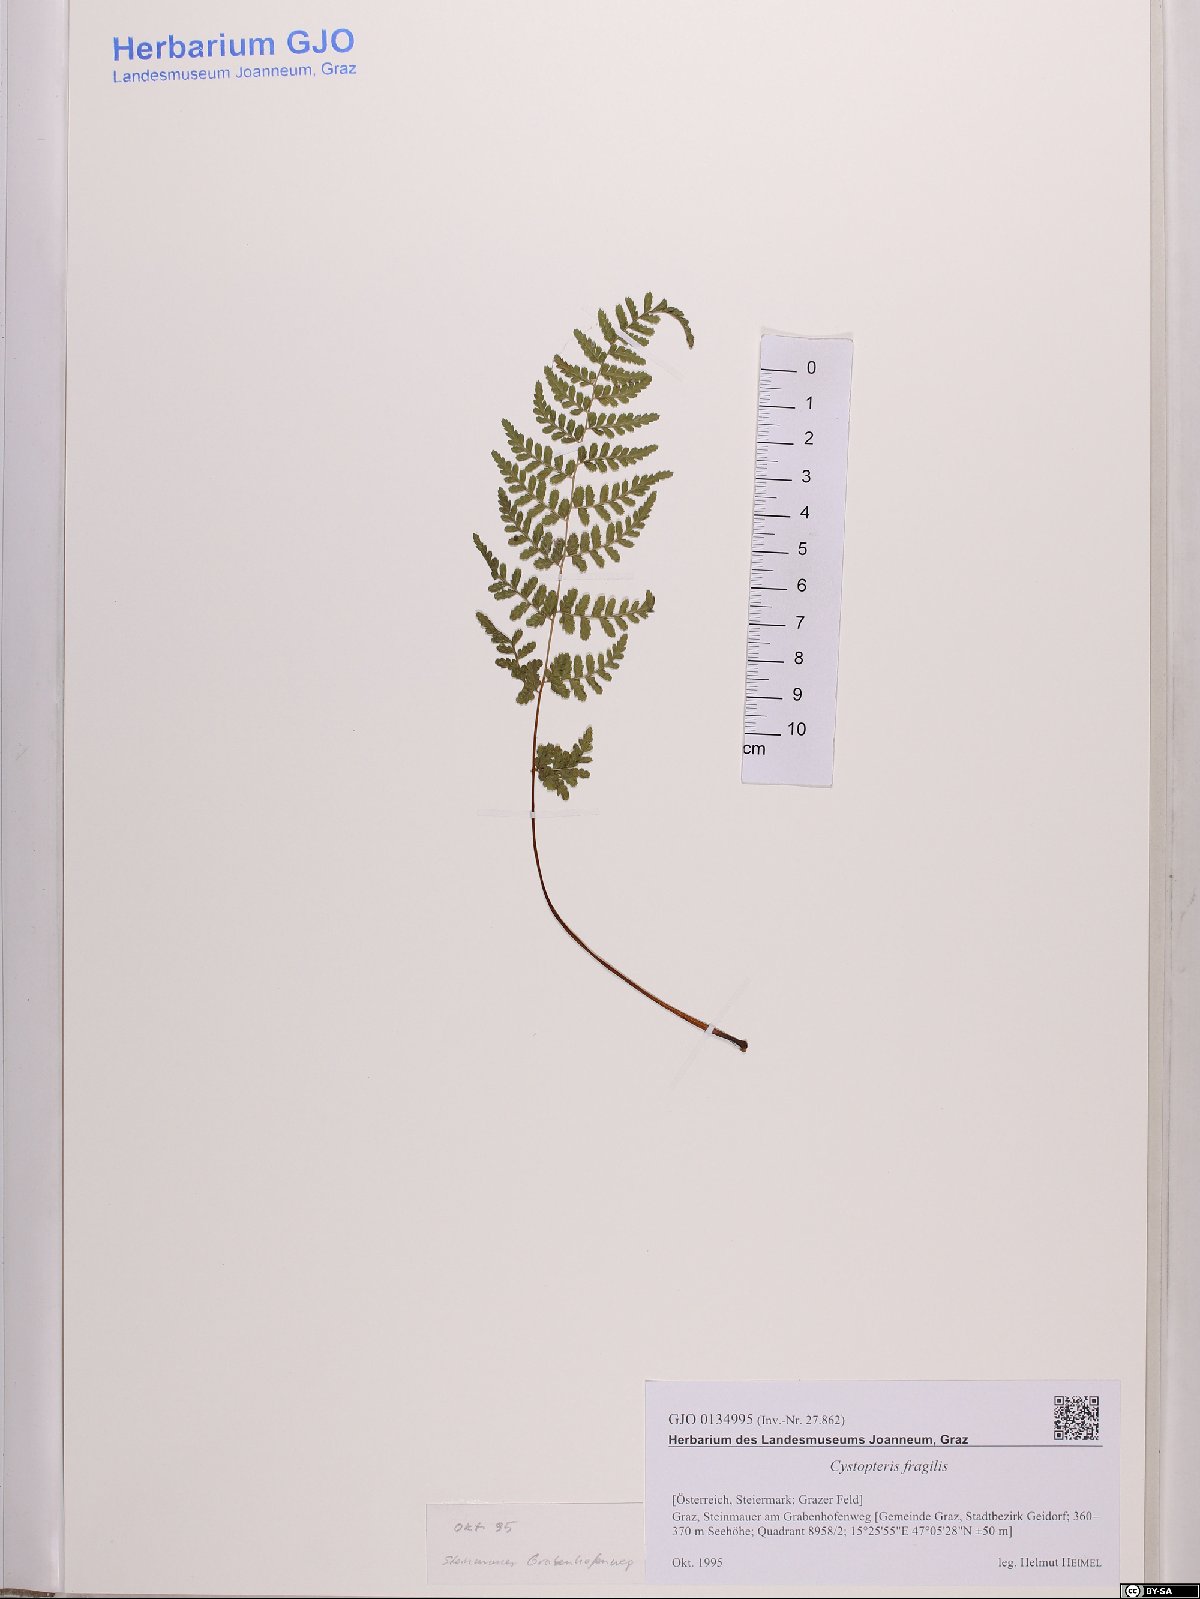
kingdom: Plantae
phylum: Tracheophyta
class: Polypodiopsida
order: Polypodiales
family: Cystopteridaceae
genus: Cystopteris
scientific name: Cystopteris fragilis
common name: Brittle bladder fern
